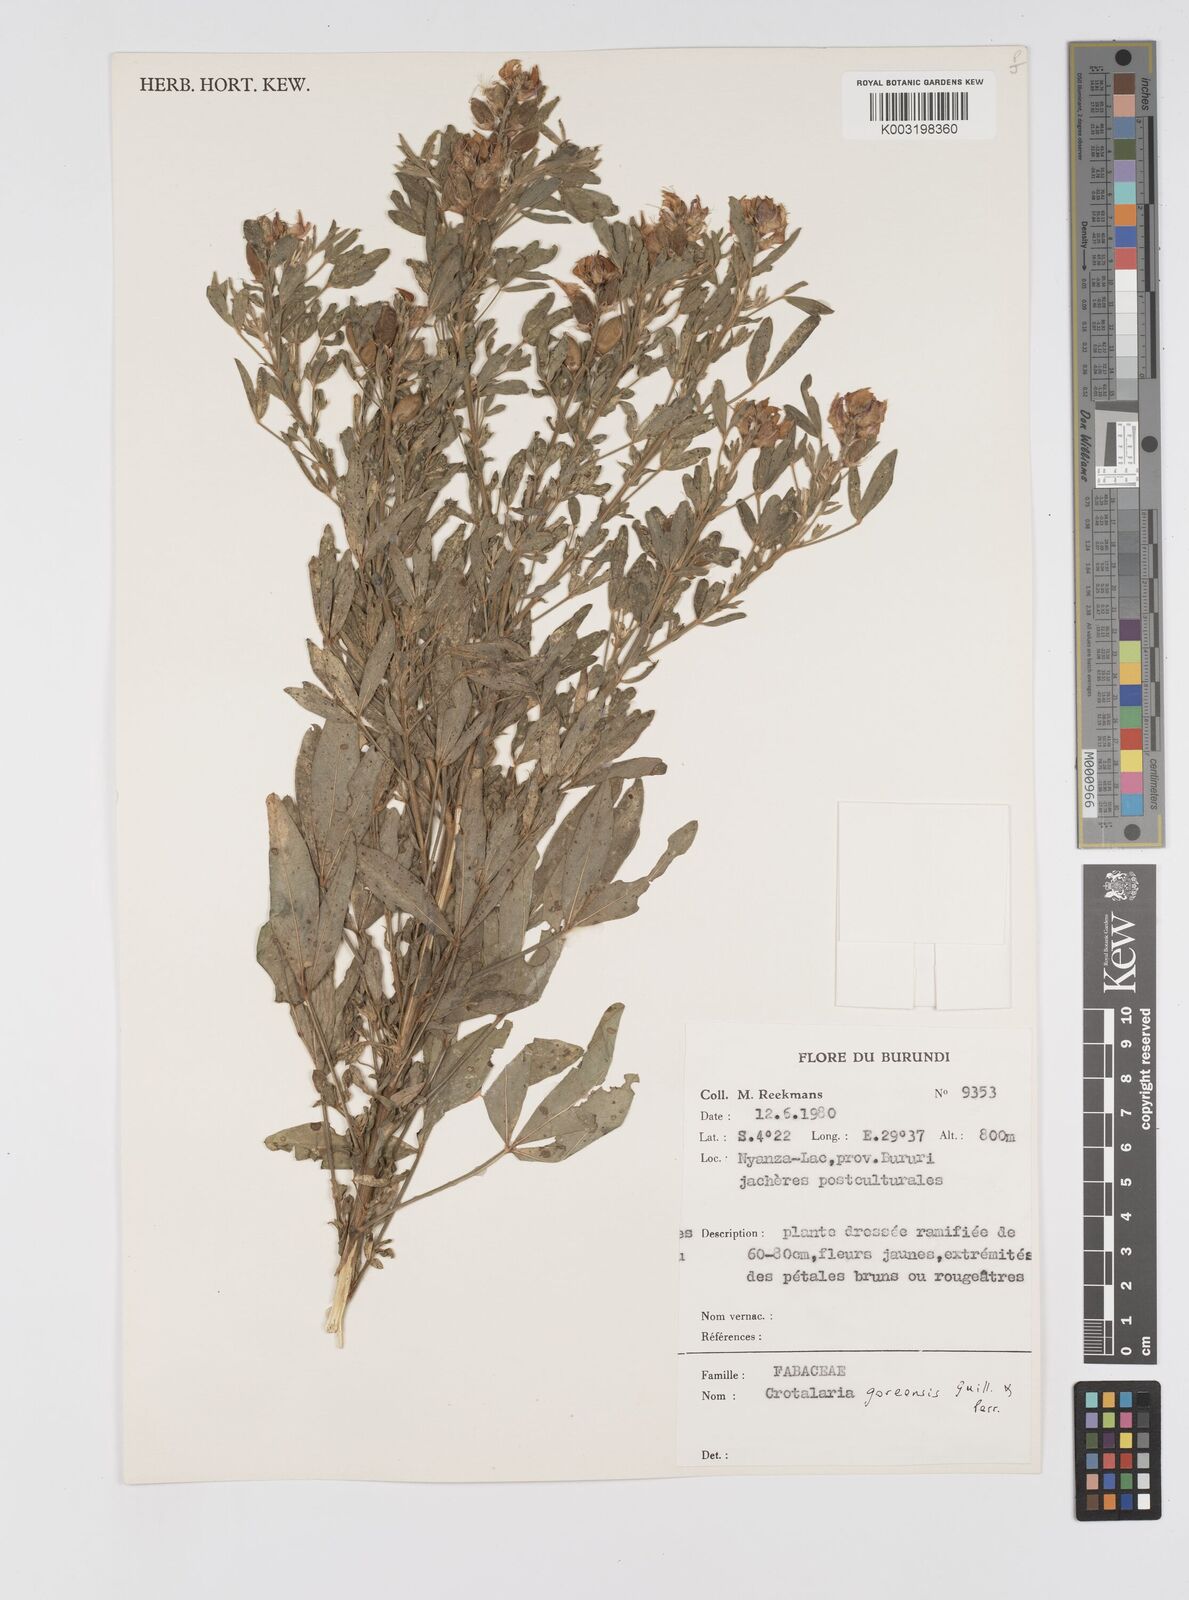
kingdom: Plantae
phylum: Tracheophyta
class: Magnoliopsida
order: Fabales
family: Fabaceae
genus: Crotalaria
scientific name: Crotalaria goreensis
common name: Gambia-pea
